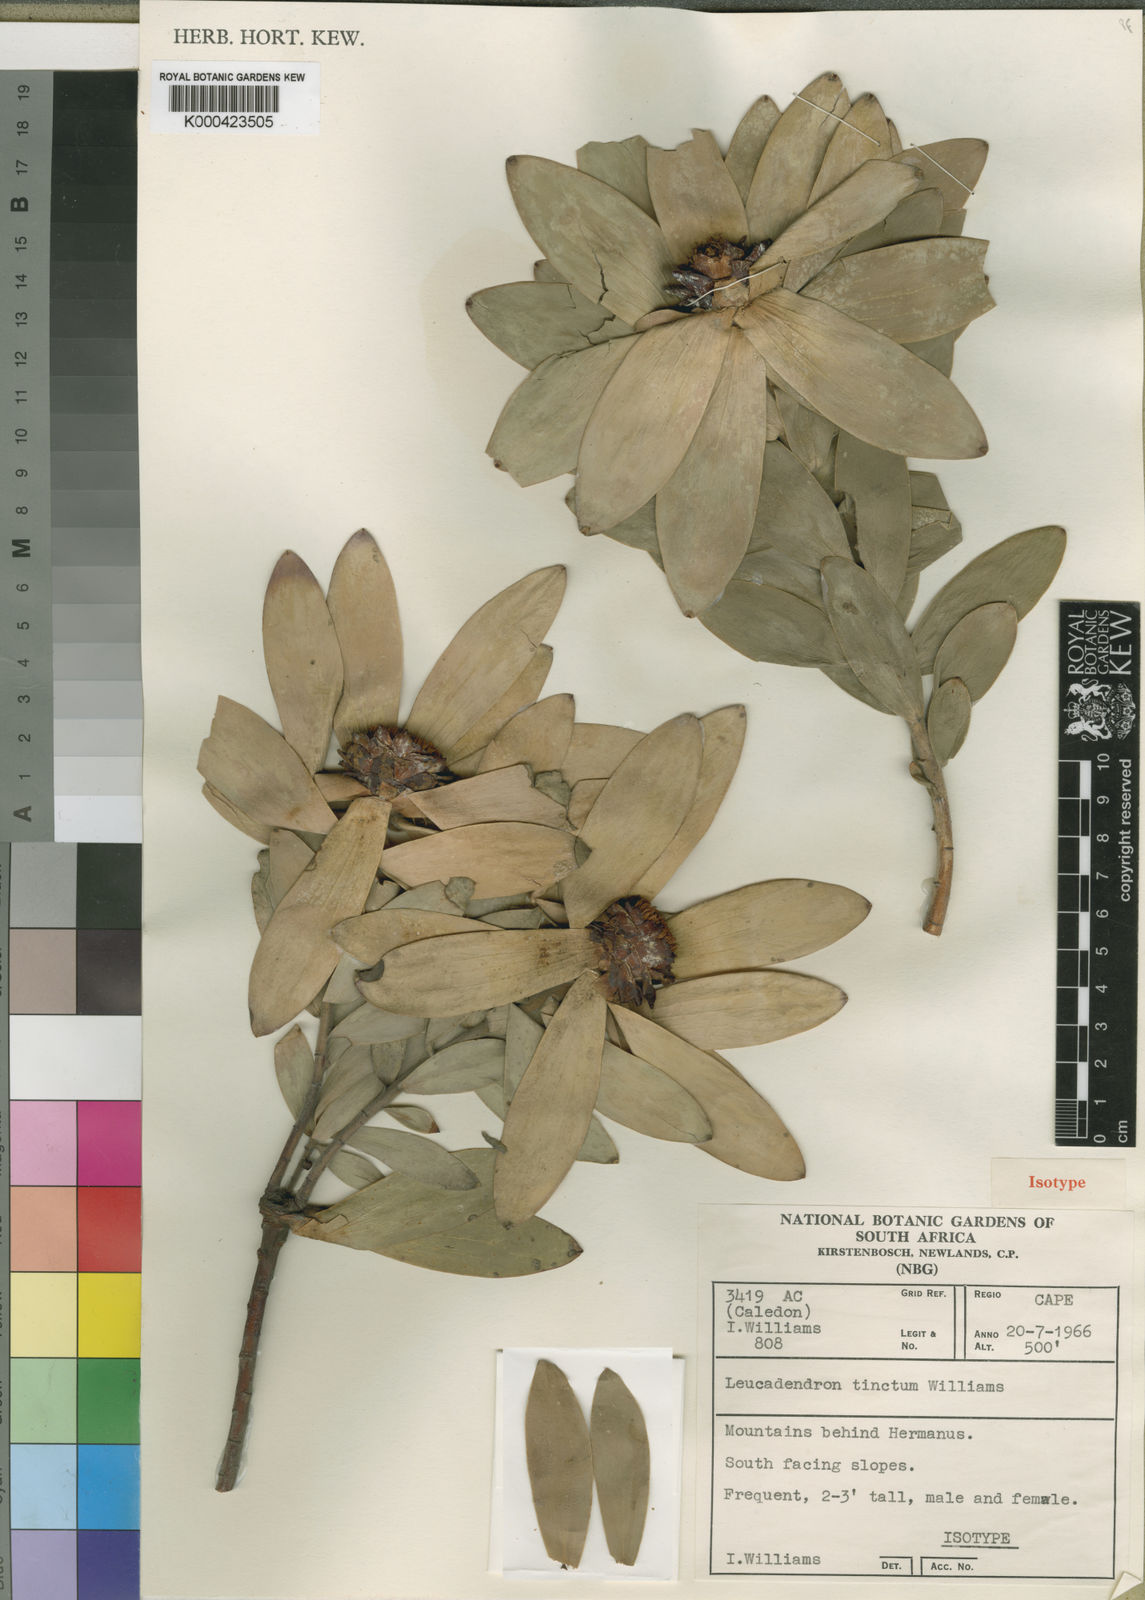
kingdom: Plantae
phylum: Tracheophyta
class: Magnoliopsida
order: Proteales
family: Proteaceae
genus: Leucadendron
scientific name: Leucadendron tinctum
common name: Spicy conebush
